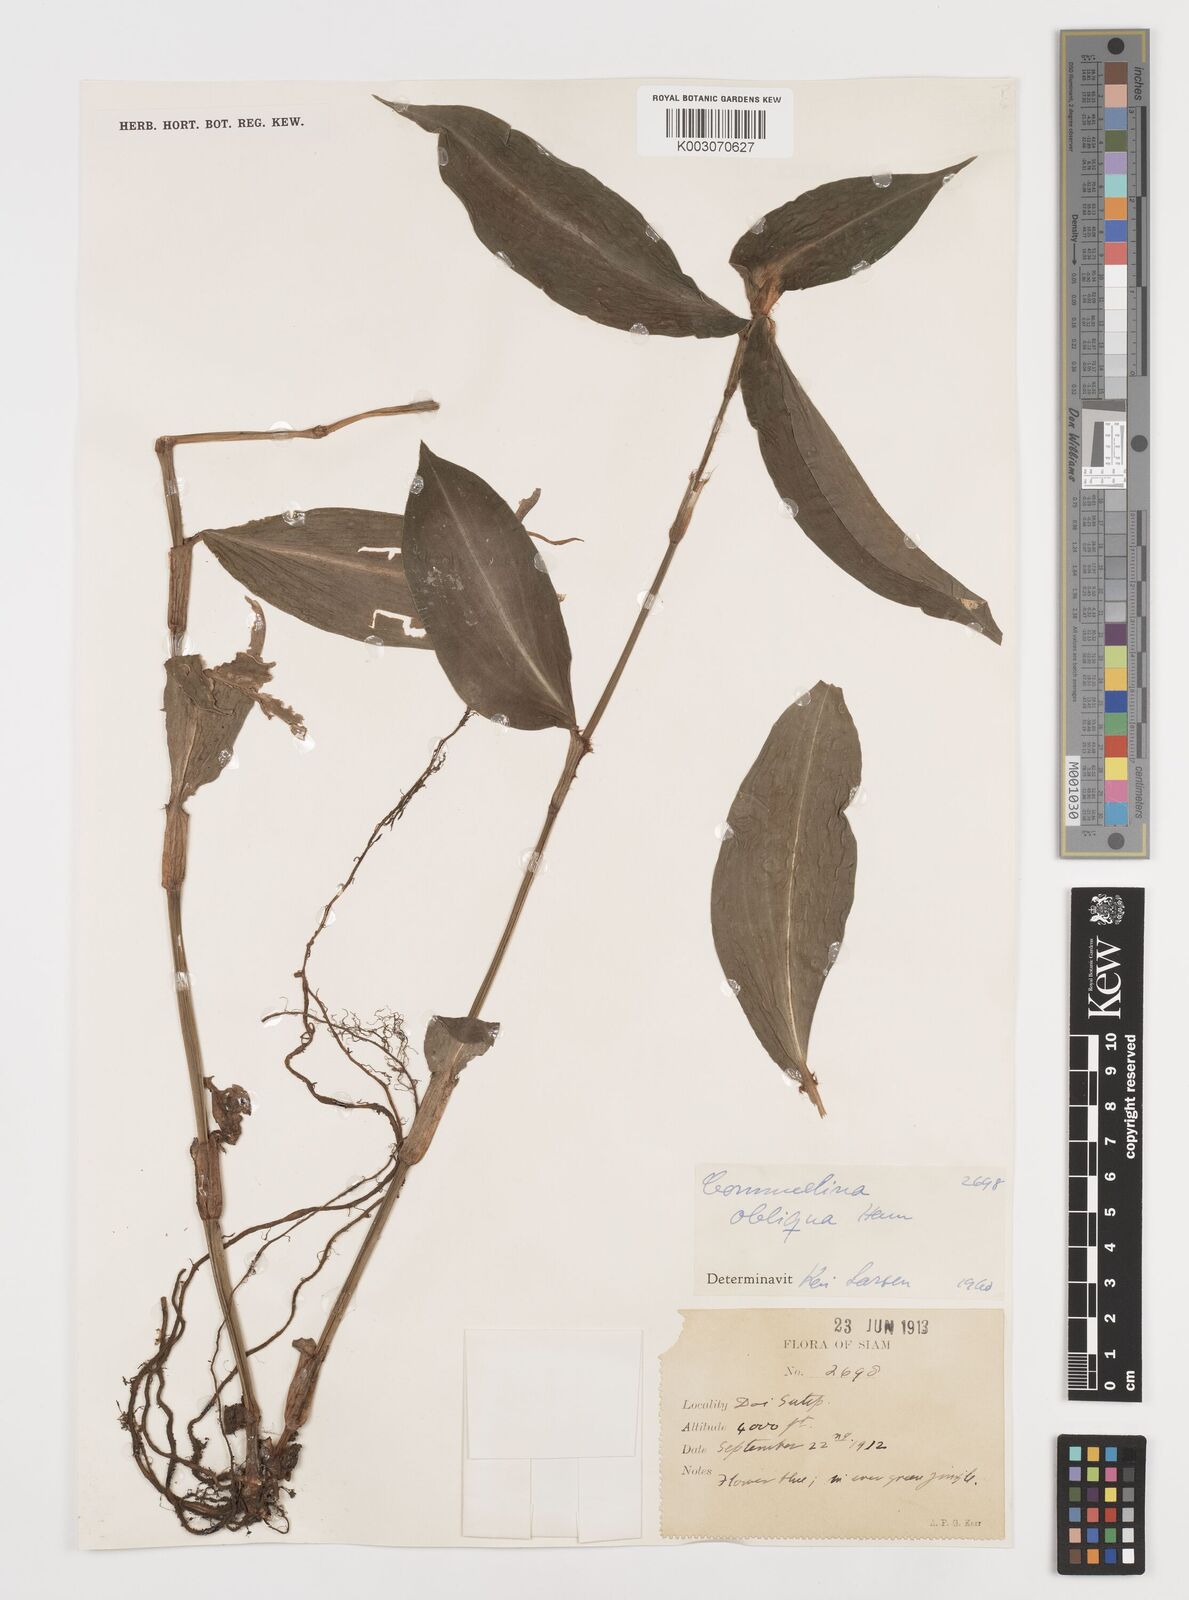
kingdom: Plantae
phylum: Tracheophyta
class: Liliopsida
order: Commelinales
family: Commelinaceae
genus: Commelina
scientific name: Commelina paludosa
